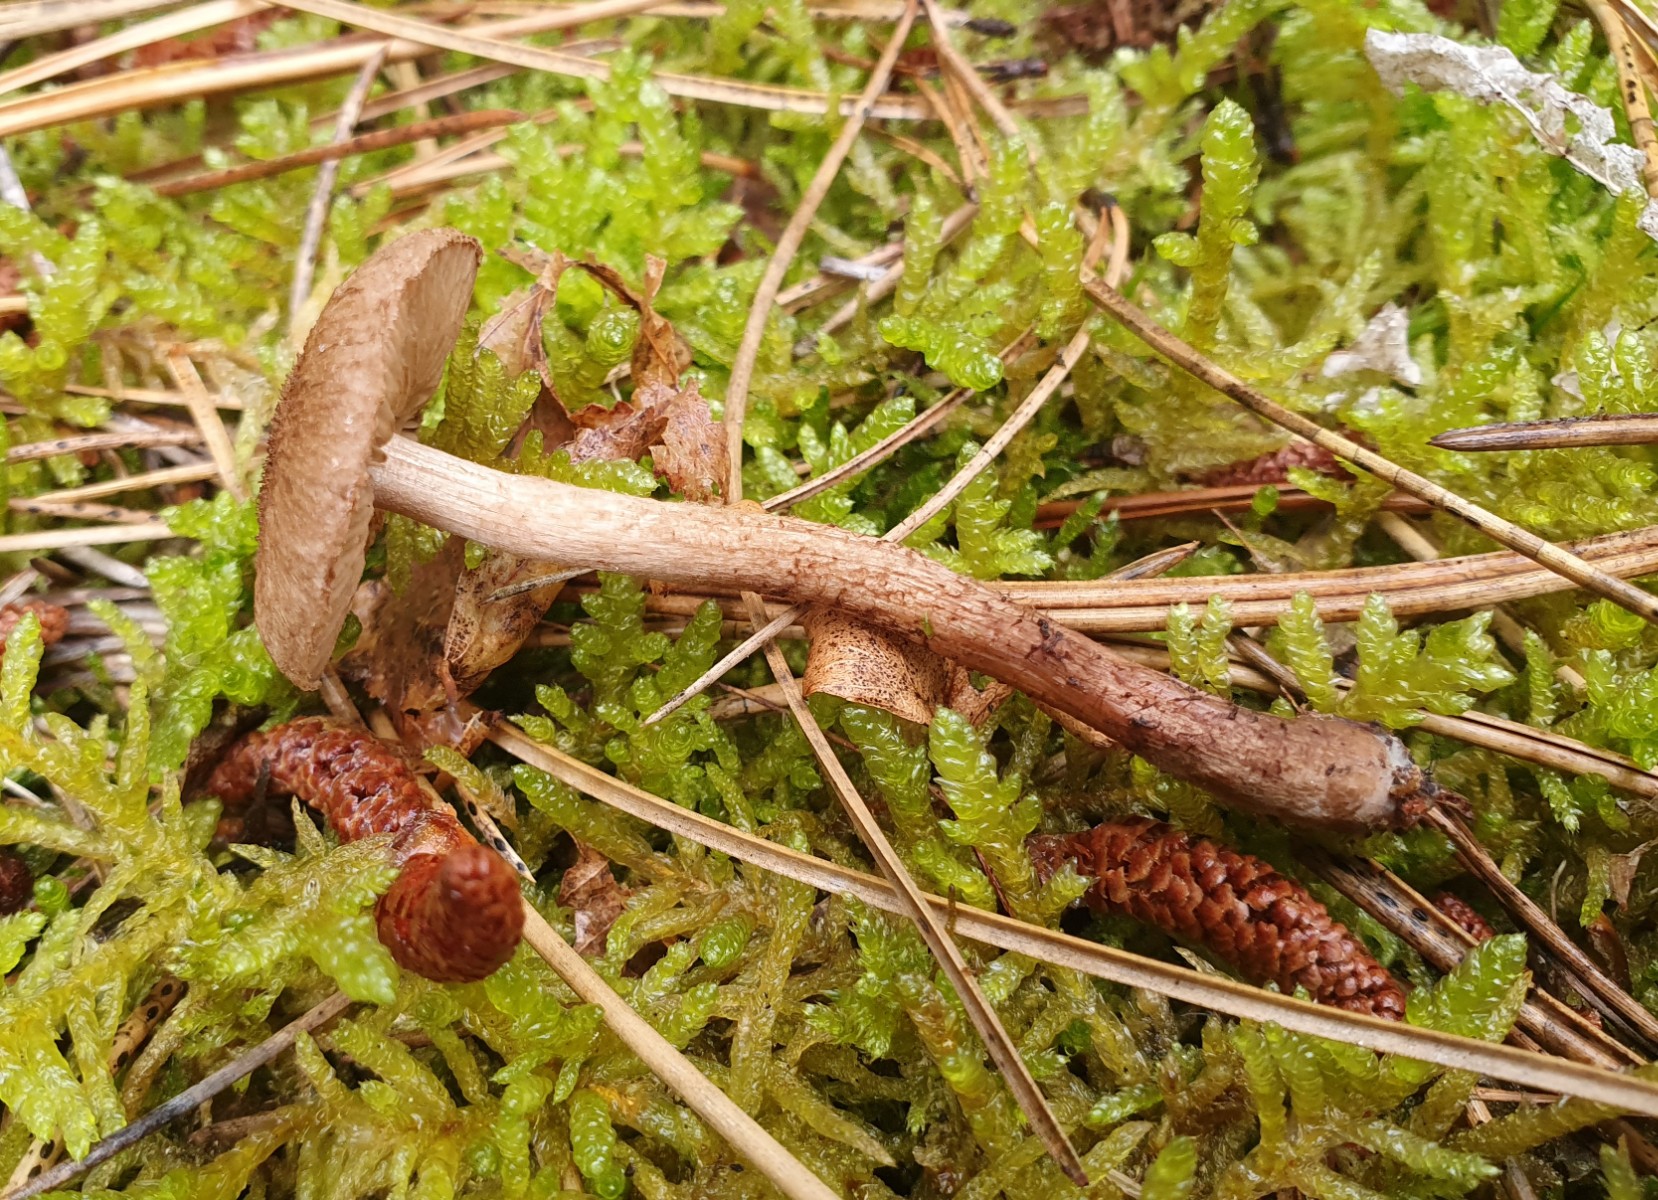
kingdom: Fungi
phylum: Basidiomycota
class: Agaricomycetes
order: Agaricales
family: Inocybaceae
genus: Inocybe
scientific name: Inocybe
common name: trævlhat
